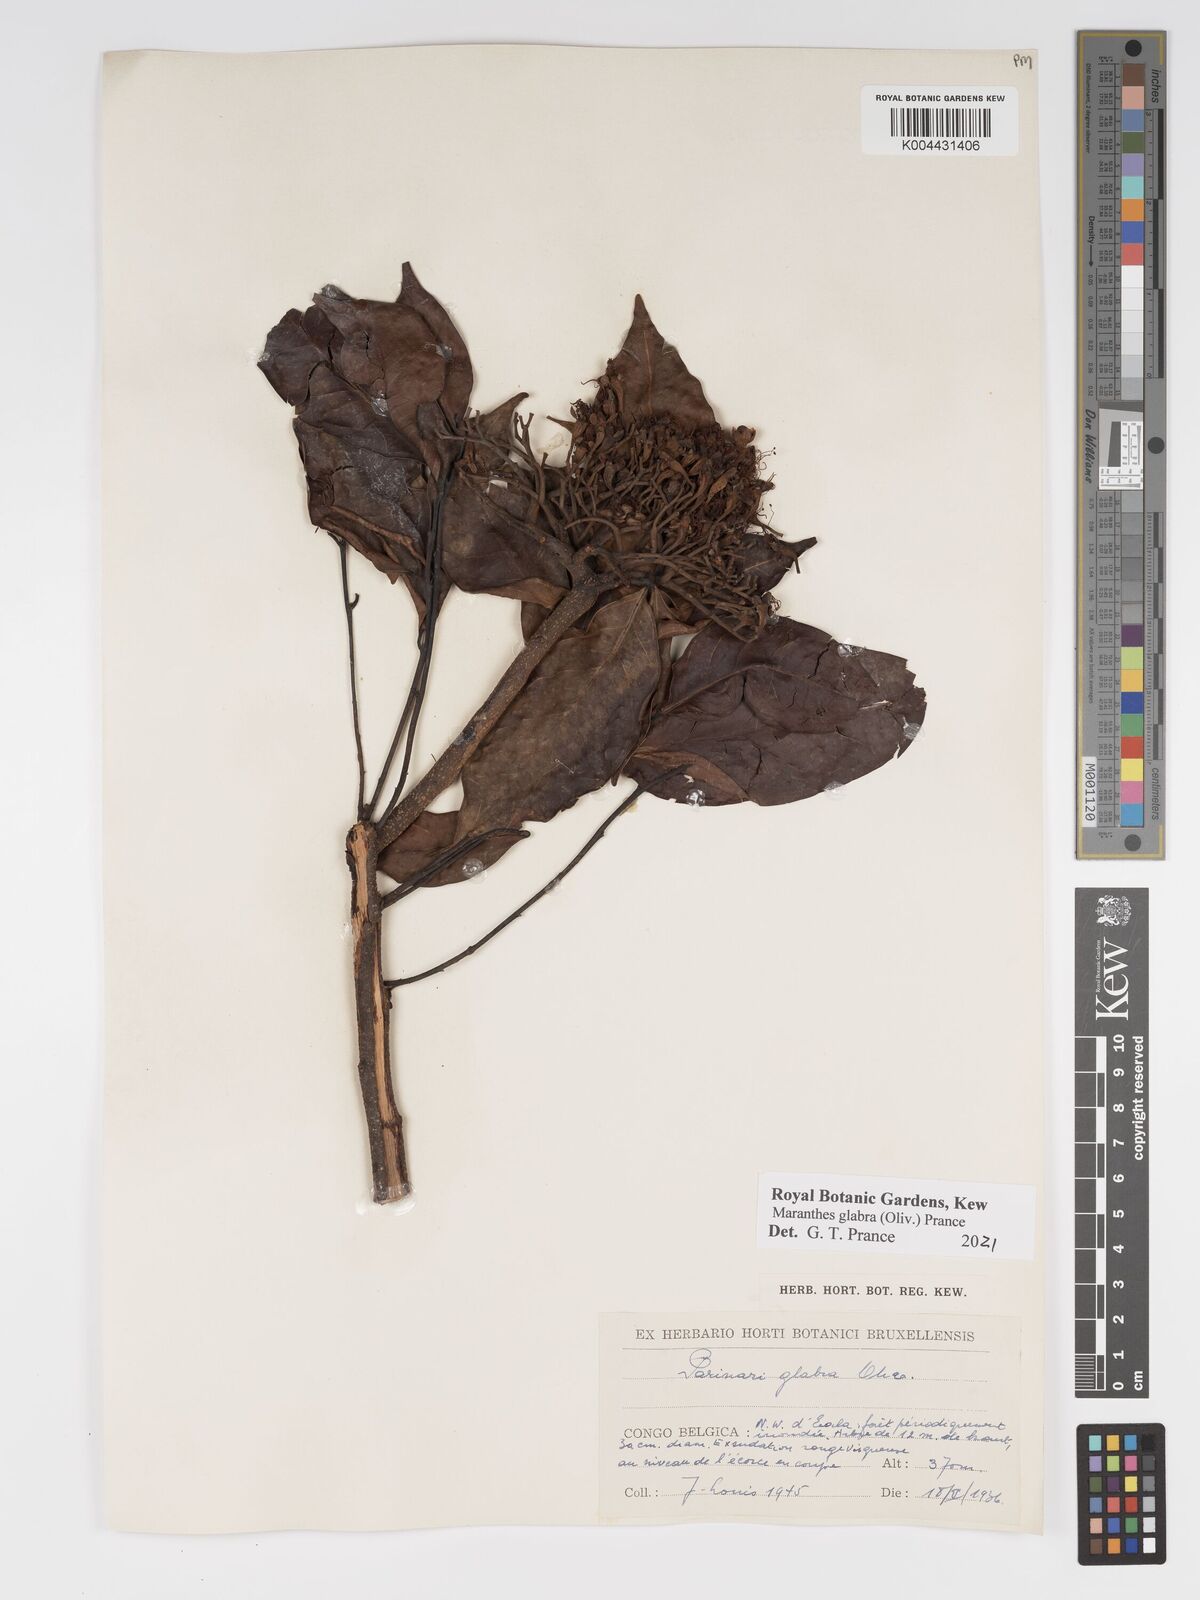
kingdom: Plantae
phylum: Tracheophyta
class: Magnoliopsida
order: Malpighiales
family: Chrysobalanaceae
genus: Maranthes
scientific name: Maranthes glabra
